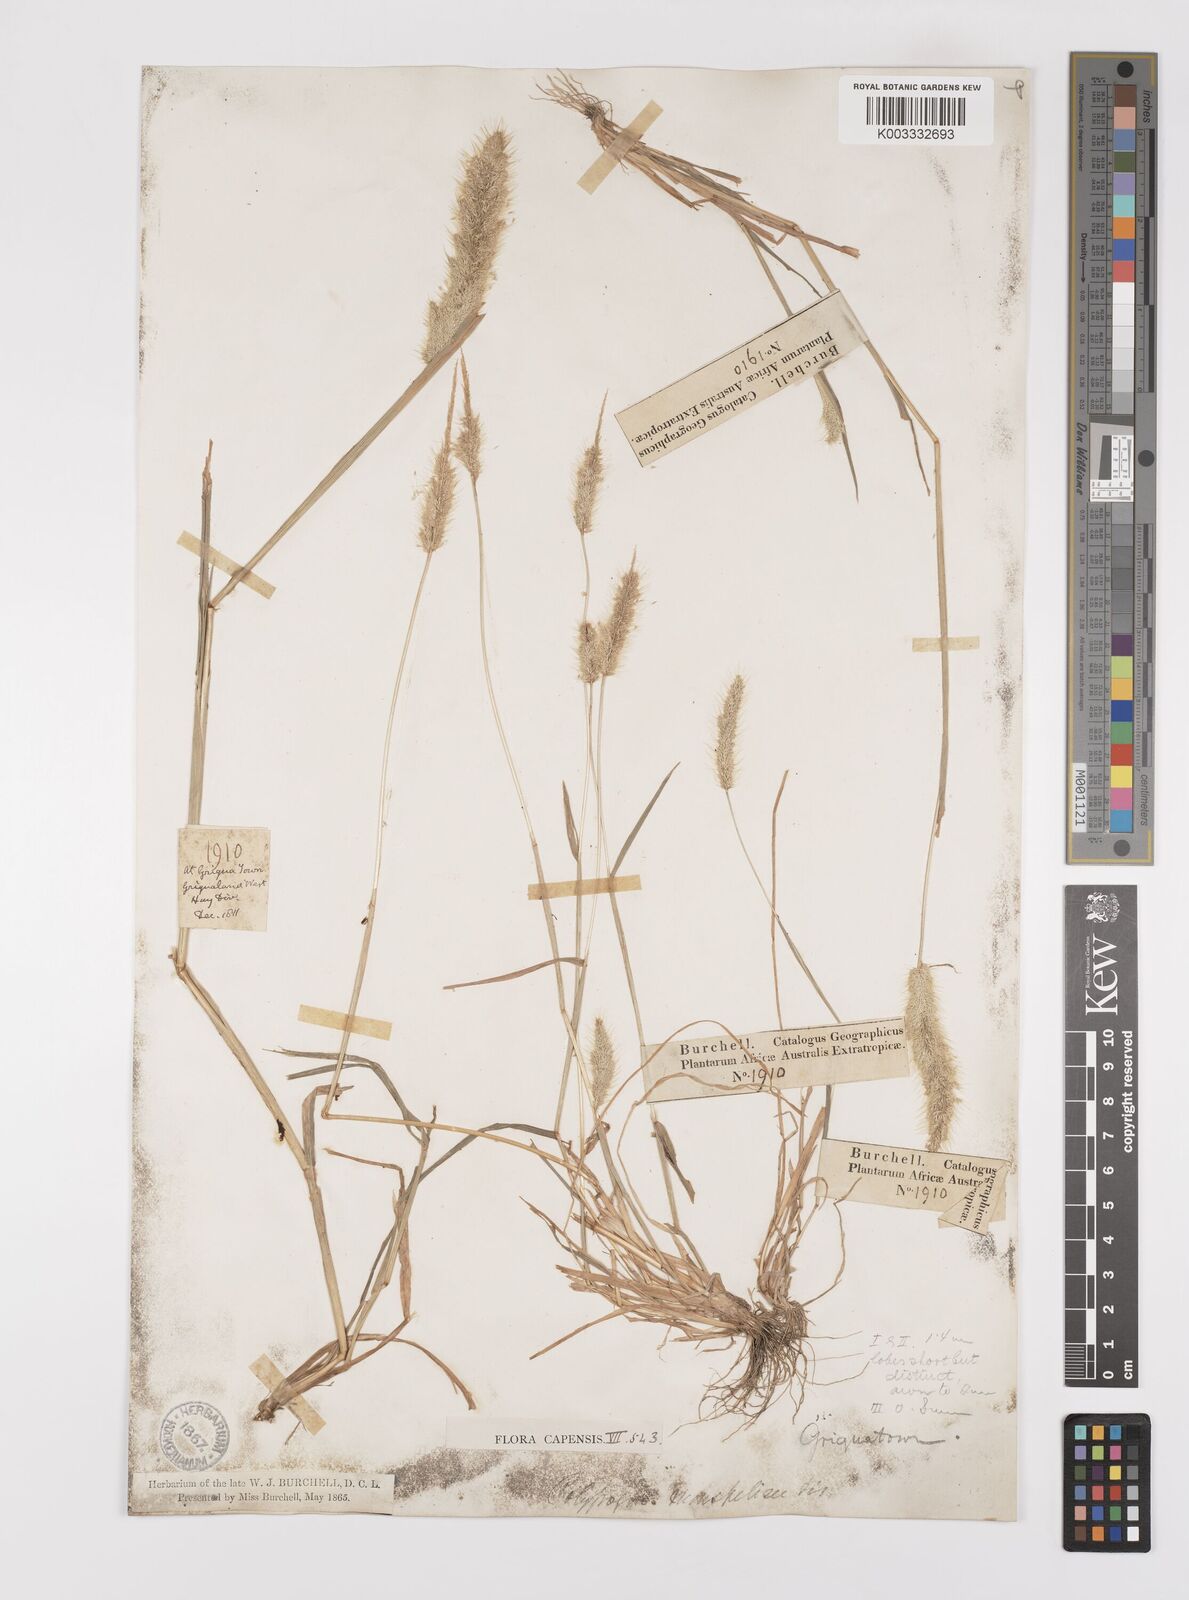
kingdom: Plantae
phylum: Tracheophyta
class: Liliopsida
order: Poales
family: Poaceae
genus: Polypogon
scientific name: Polypogon monspeliensis
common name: Annual rabbitsfoot grass
